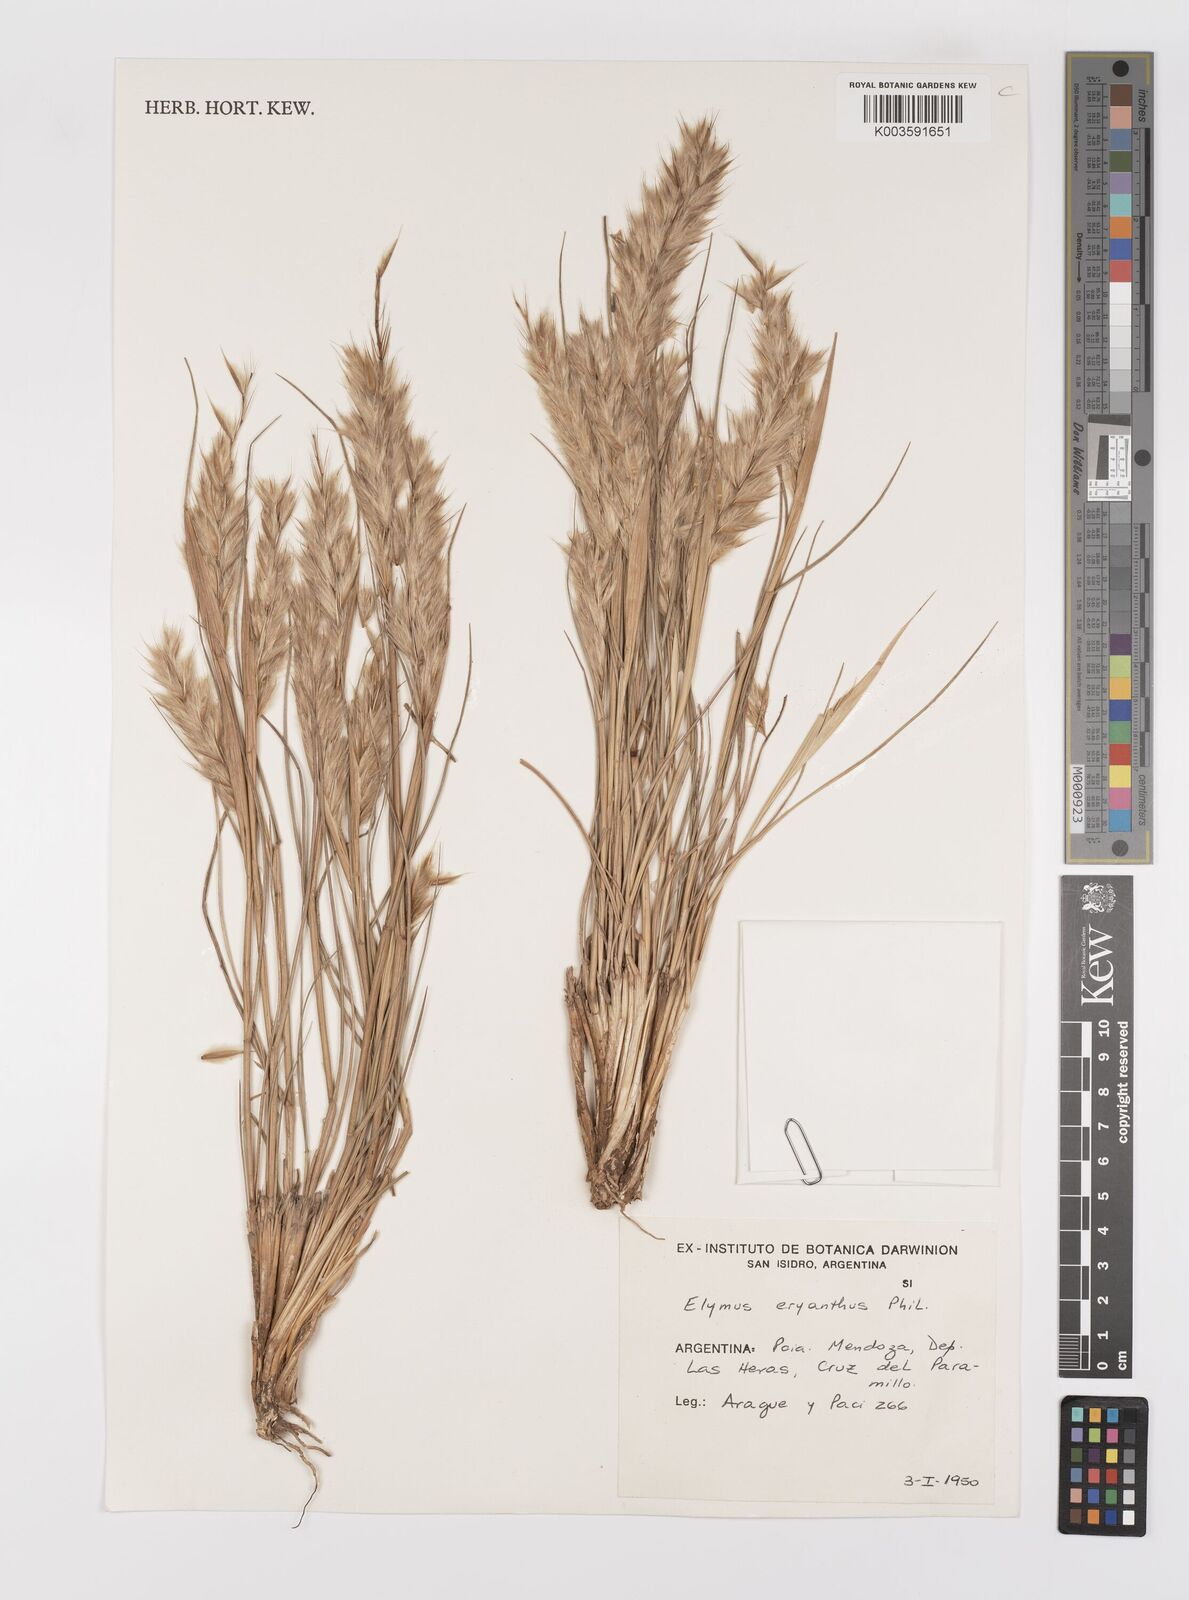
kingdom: Plantae
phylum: Tracheophyta
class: Liliopsida
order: Poales
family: Poaceae
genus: Leymus
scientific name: Leymus erianthus
